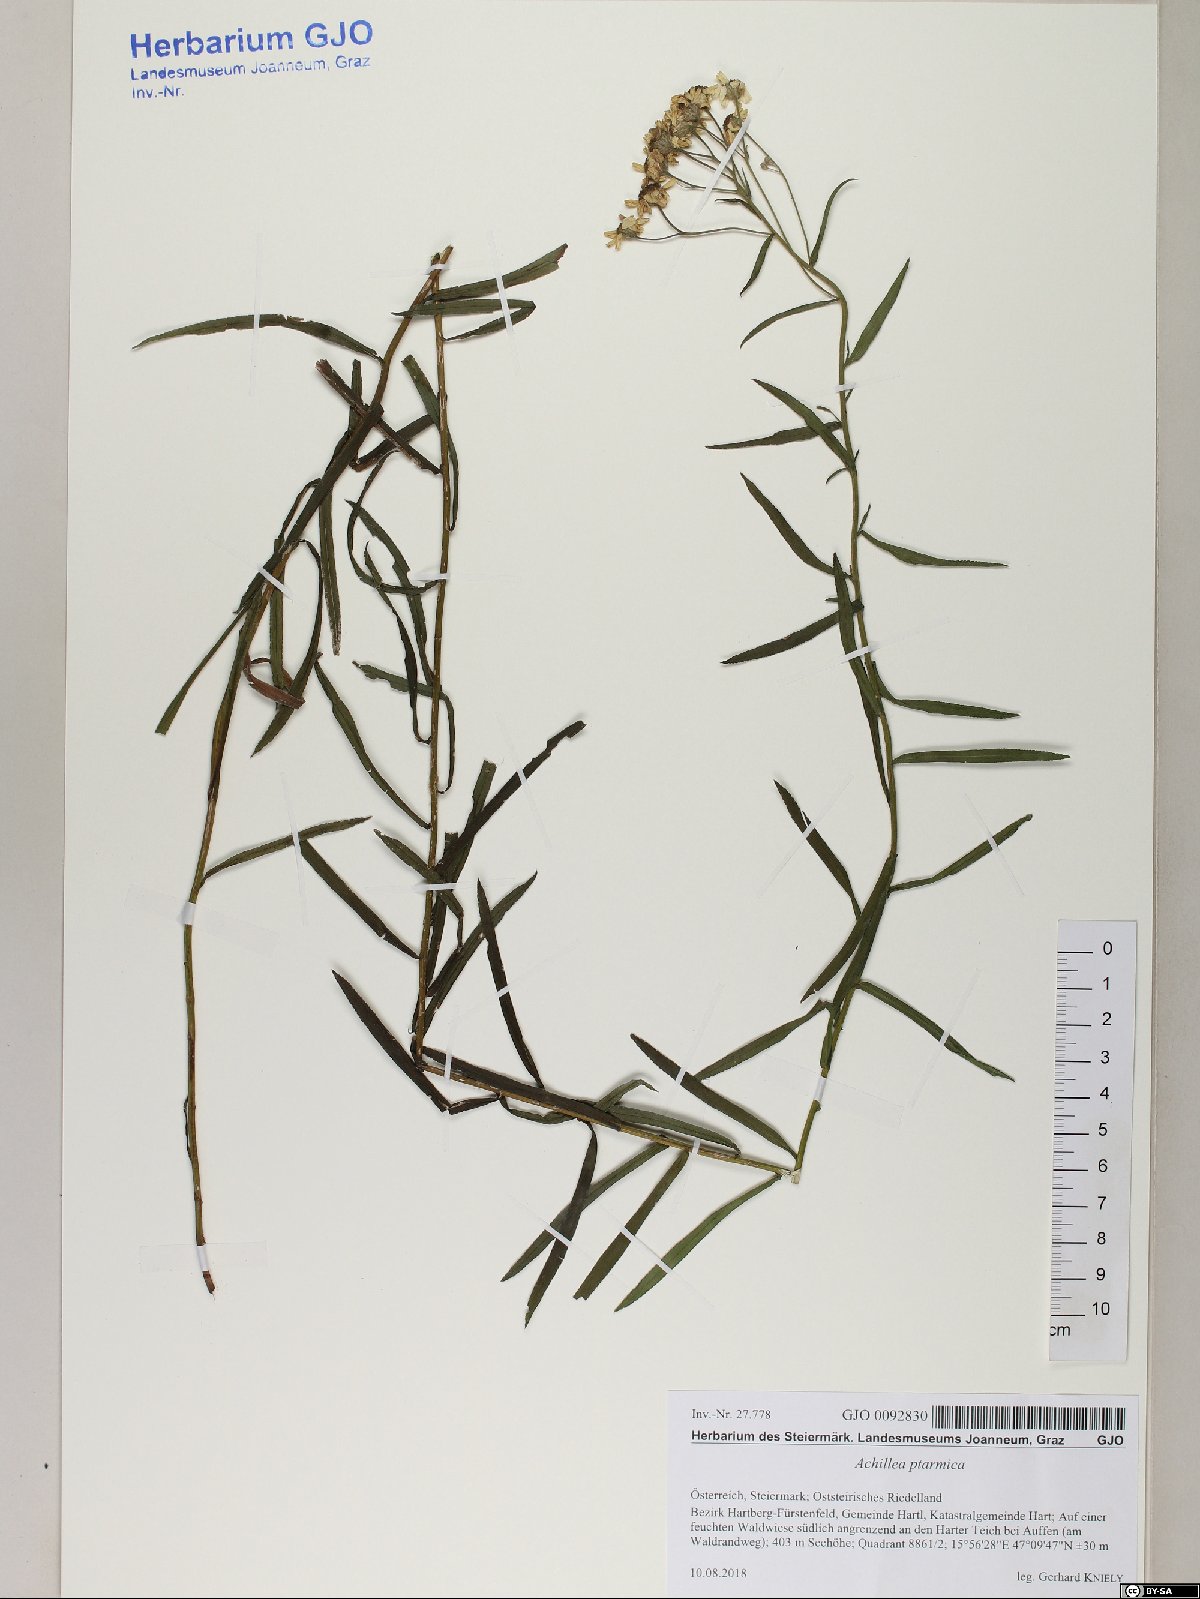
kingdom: Plantae
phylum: Tracheophyta
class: Magnoliopsida
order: Asterales
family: Asteraceae
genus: Achillea
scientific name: Achillea ptarmica
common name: Sneezeweed
